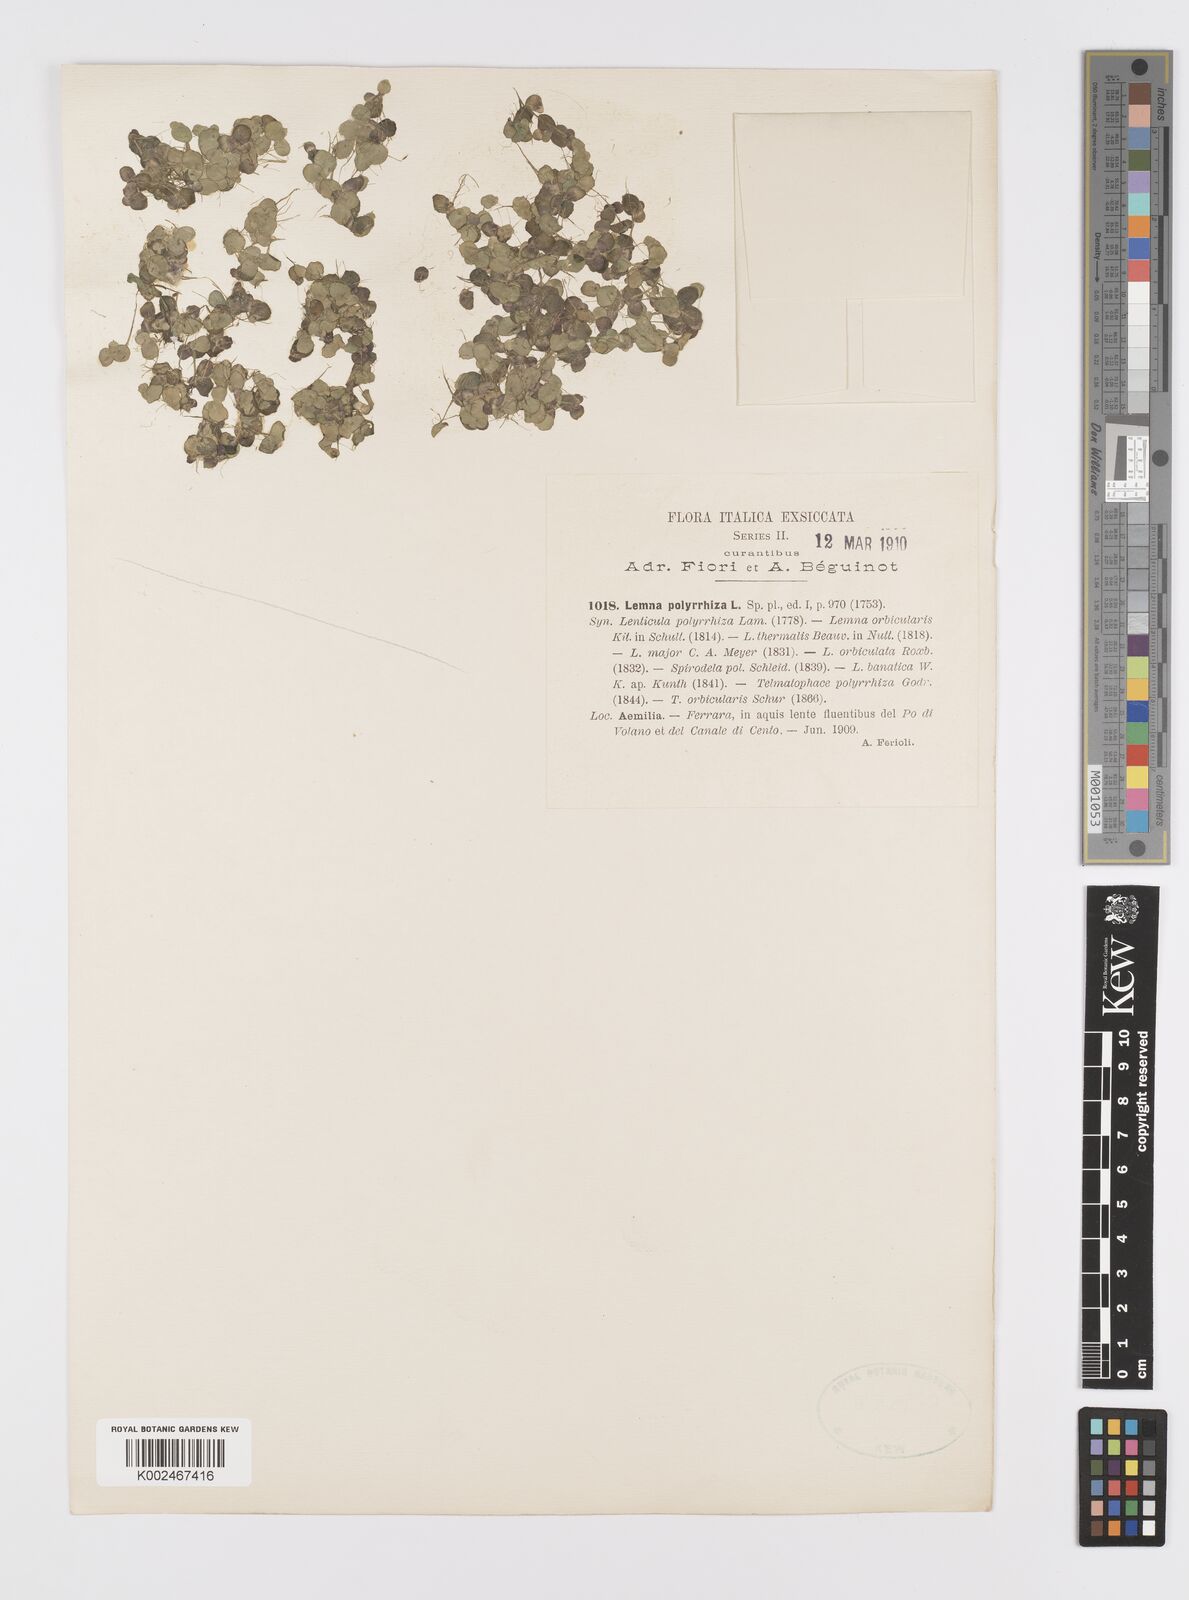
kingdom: Plantae
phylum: Tracheophyta
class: Liliopsida
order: Alismatales
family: Araceae
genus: Spirodela
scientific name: Spirodela polyrhiza
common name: Great duckweed
